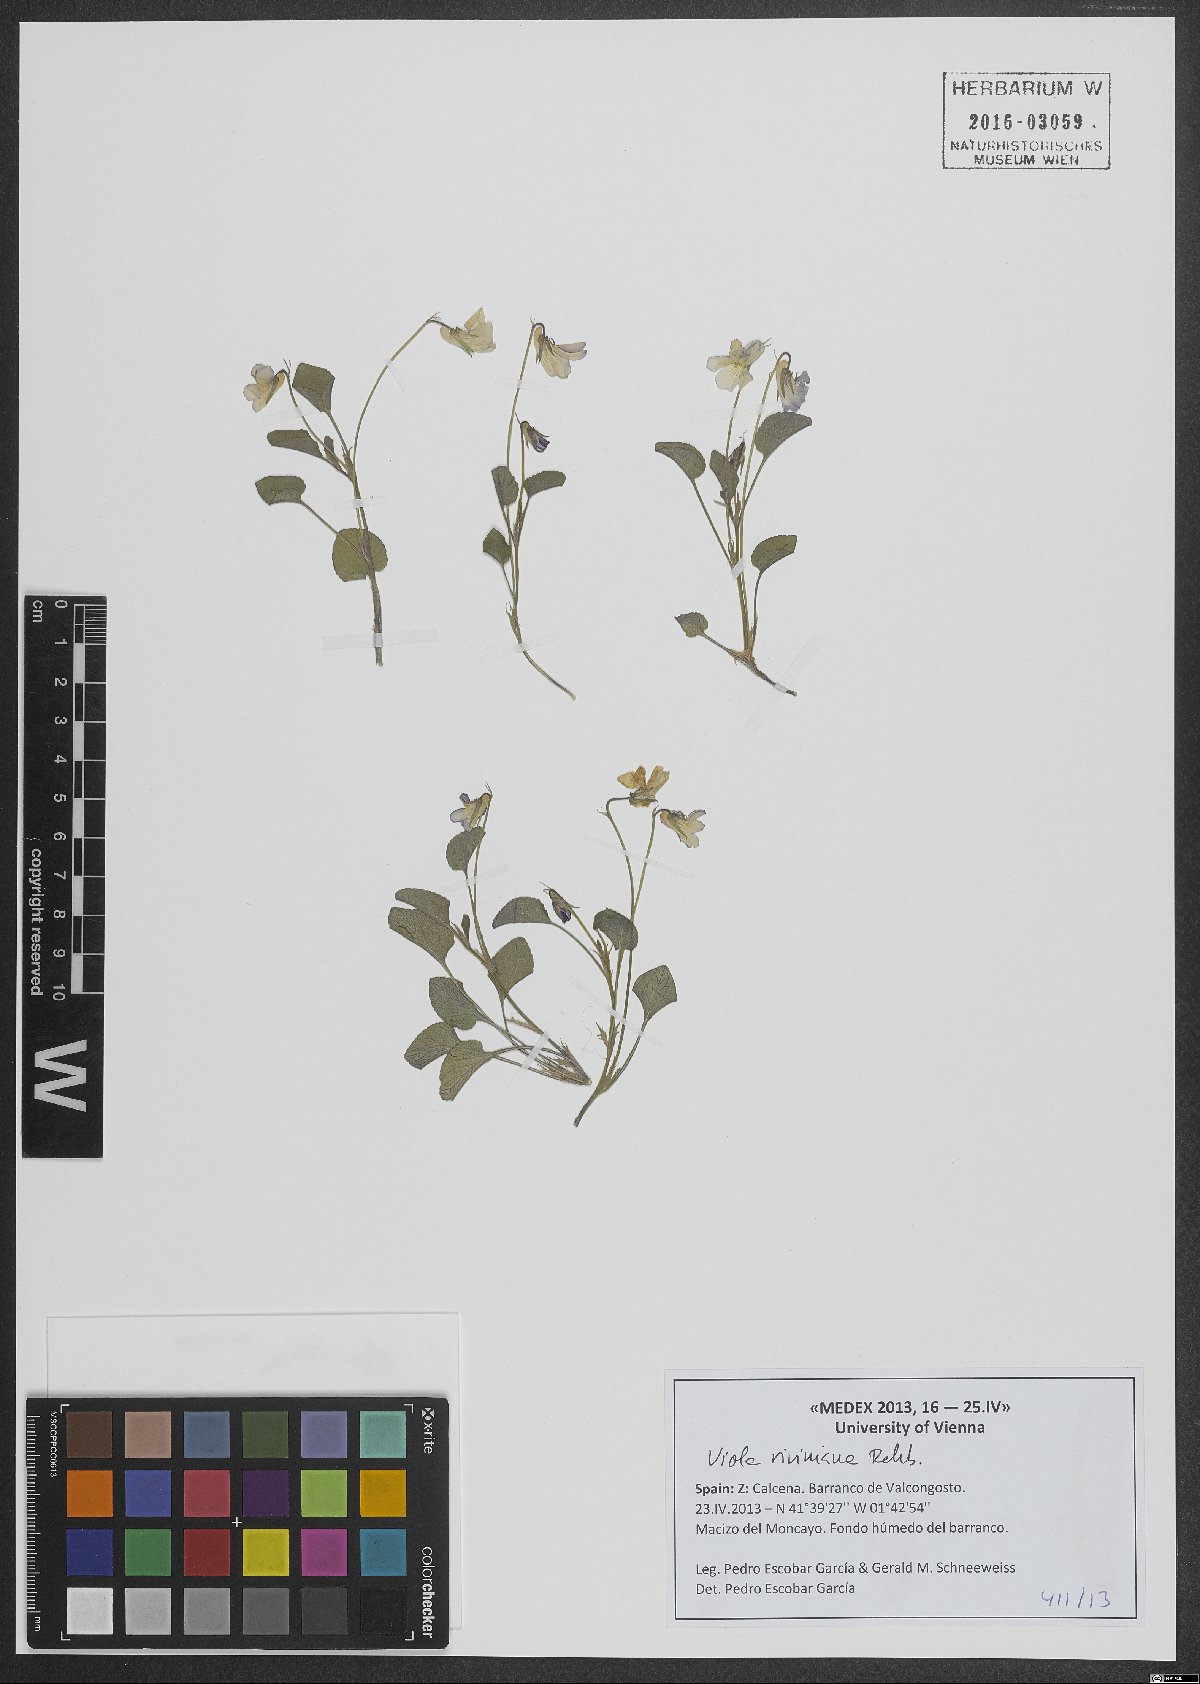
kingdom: Plantae
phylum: Tracheophyta
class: Magnoliopsida
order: Malpighiales
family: Violaceae
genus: Viola
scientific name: Viola riviniana
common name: Common dog-violet
